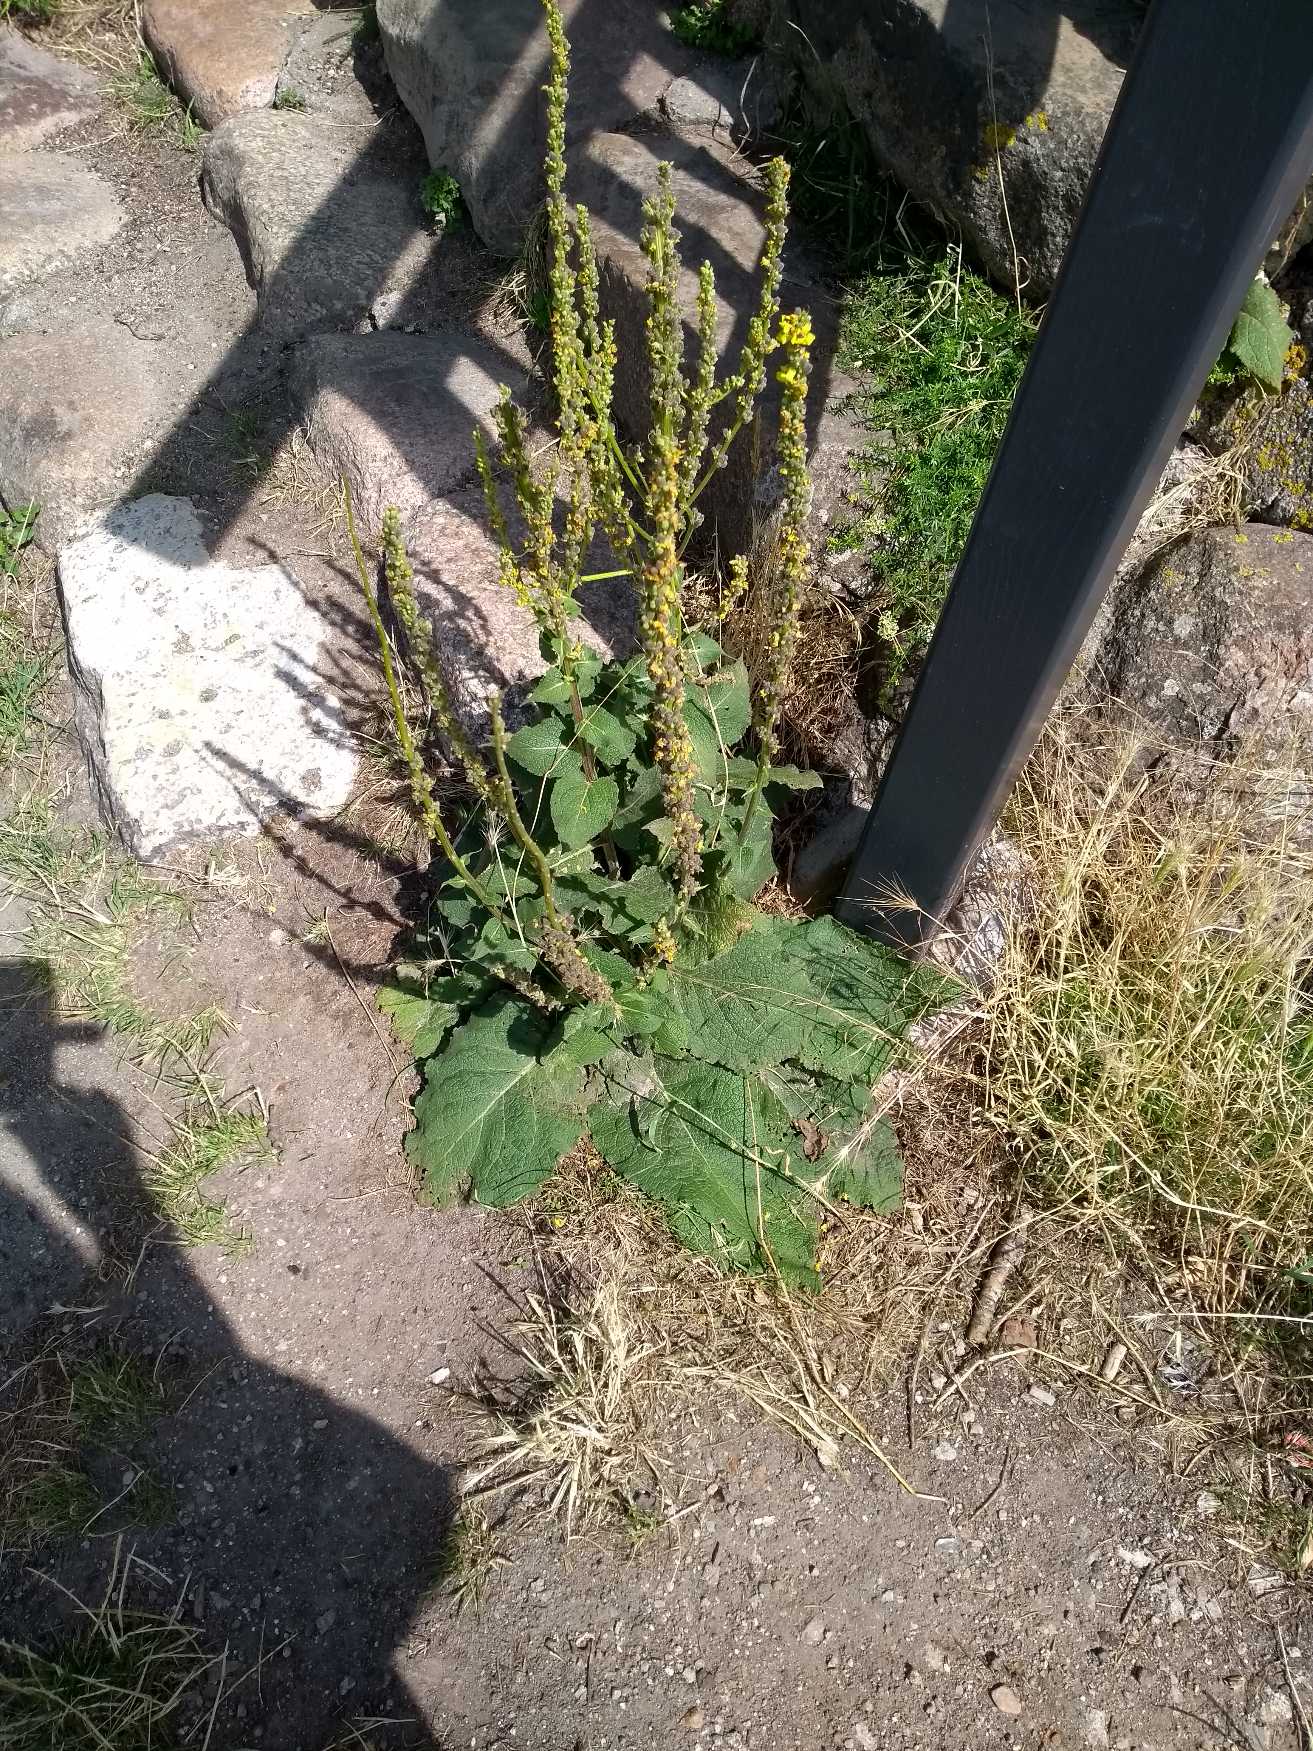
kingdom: Plantae
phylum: Tracheophyta
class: Magnoliopsida
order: Lamiales
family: Scrophulariaceae
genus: Verbascum
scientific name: Verbascum nigrum
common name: Mørk kongelys
